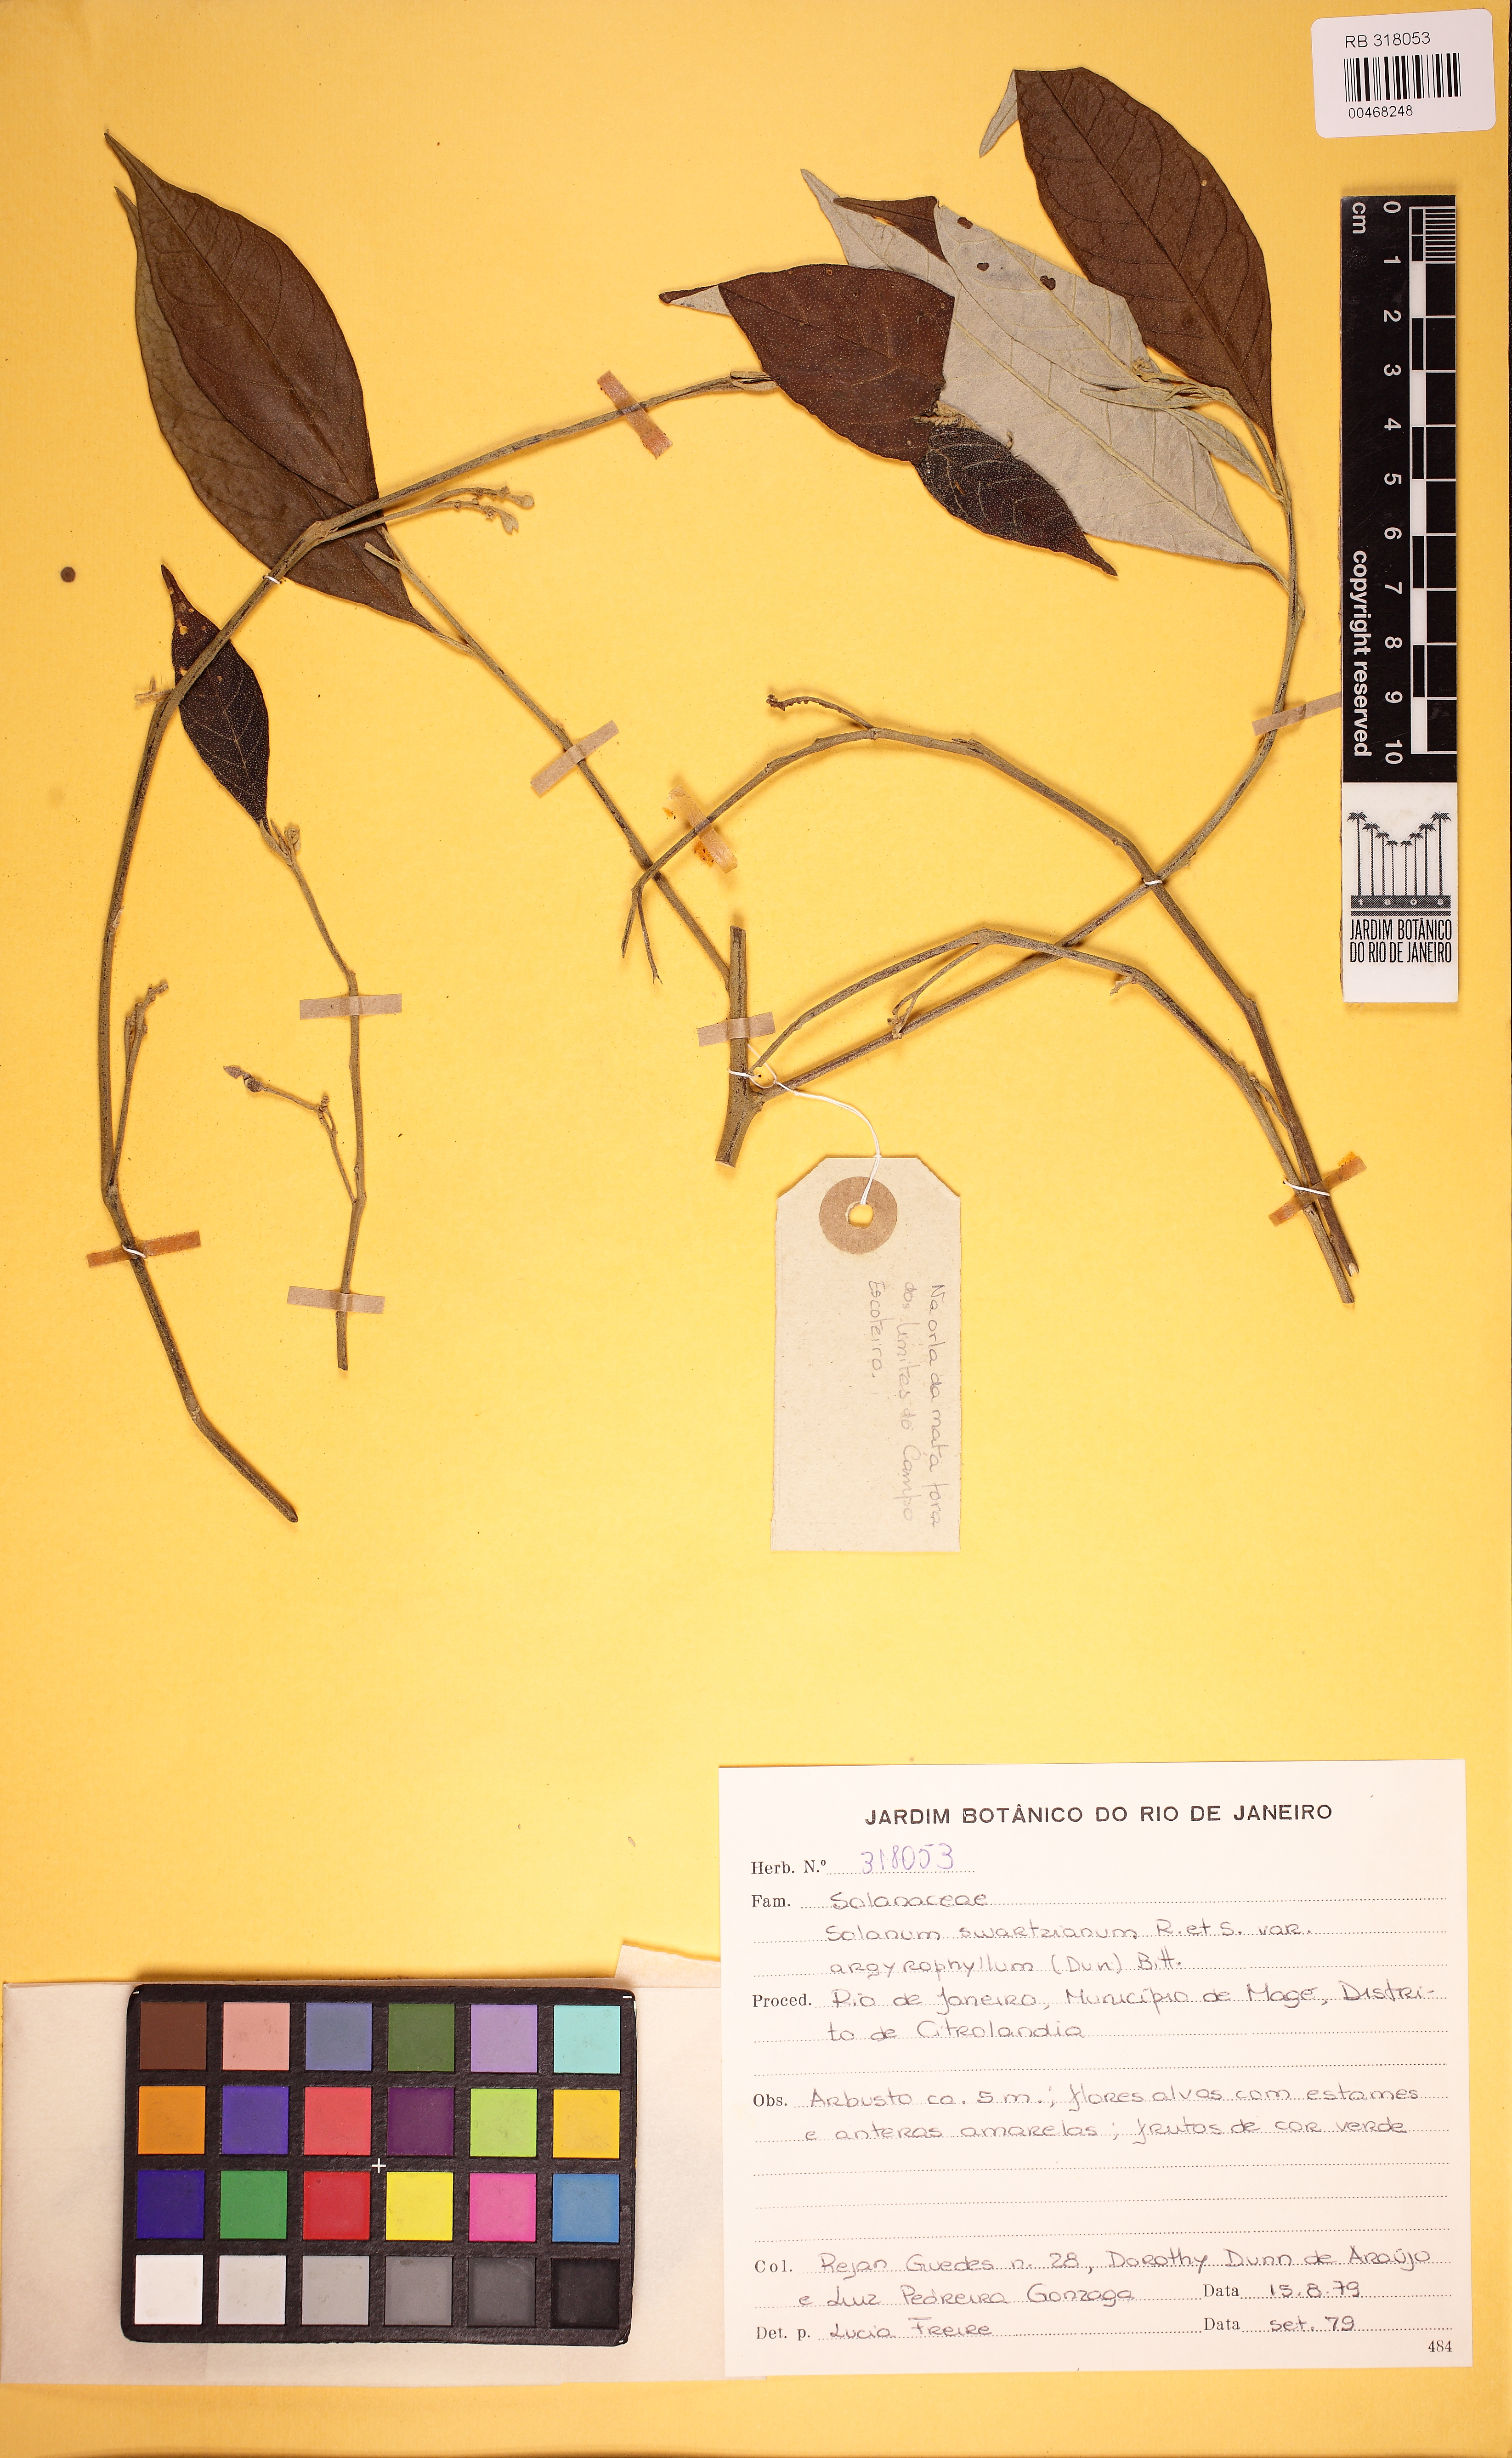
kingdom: Plantae
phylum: Tracheophyta
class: Magnoliopsida
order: Solanales
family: Solanaceae
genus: Solanum
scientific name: Solanum swartzianum
